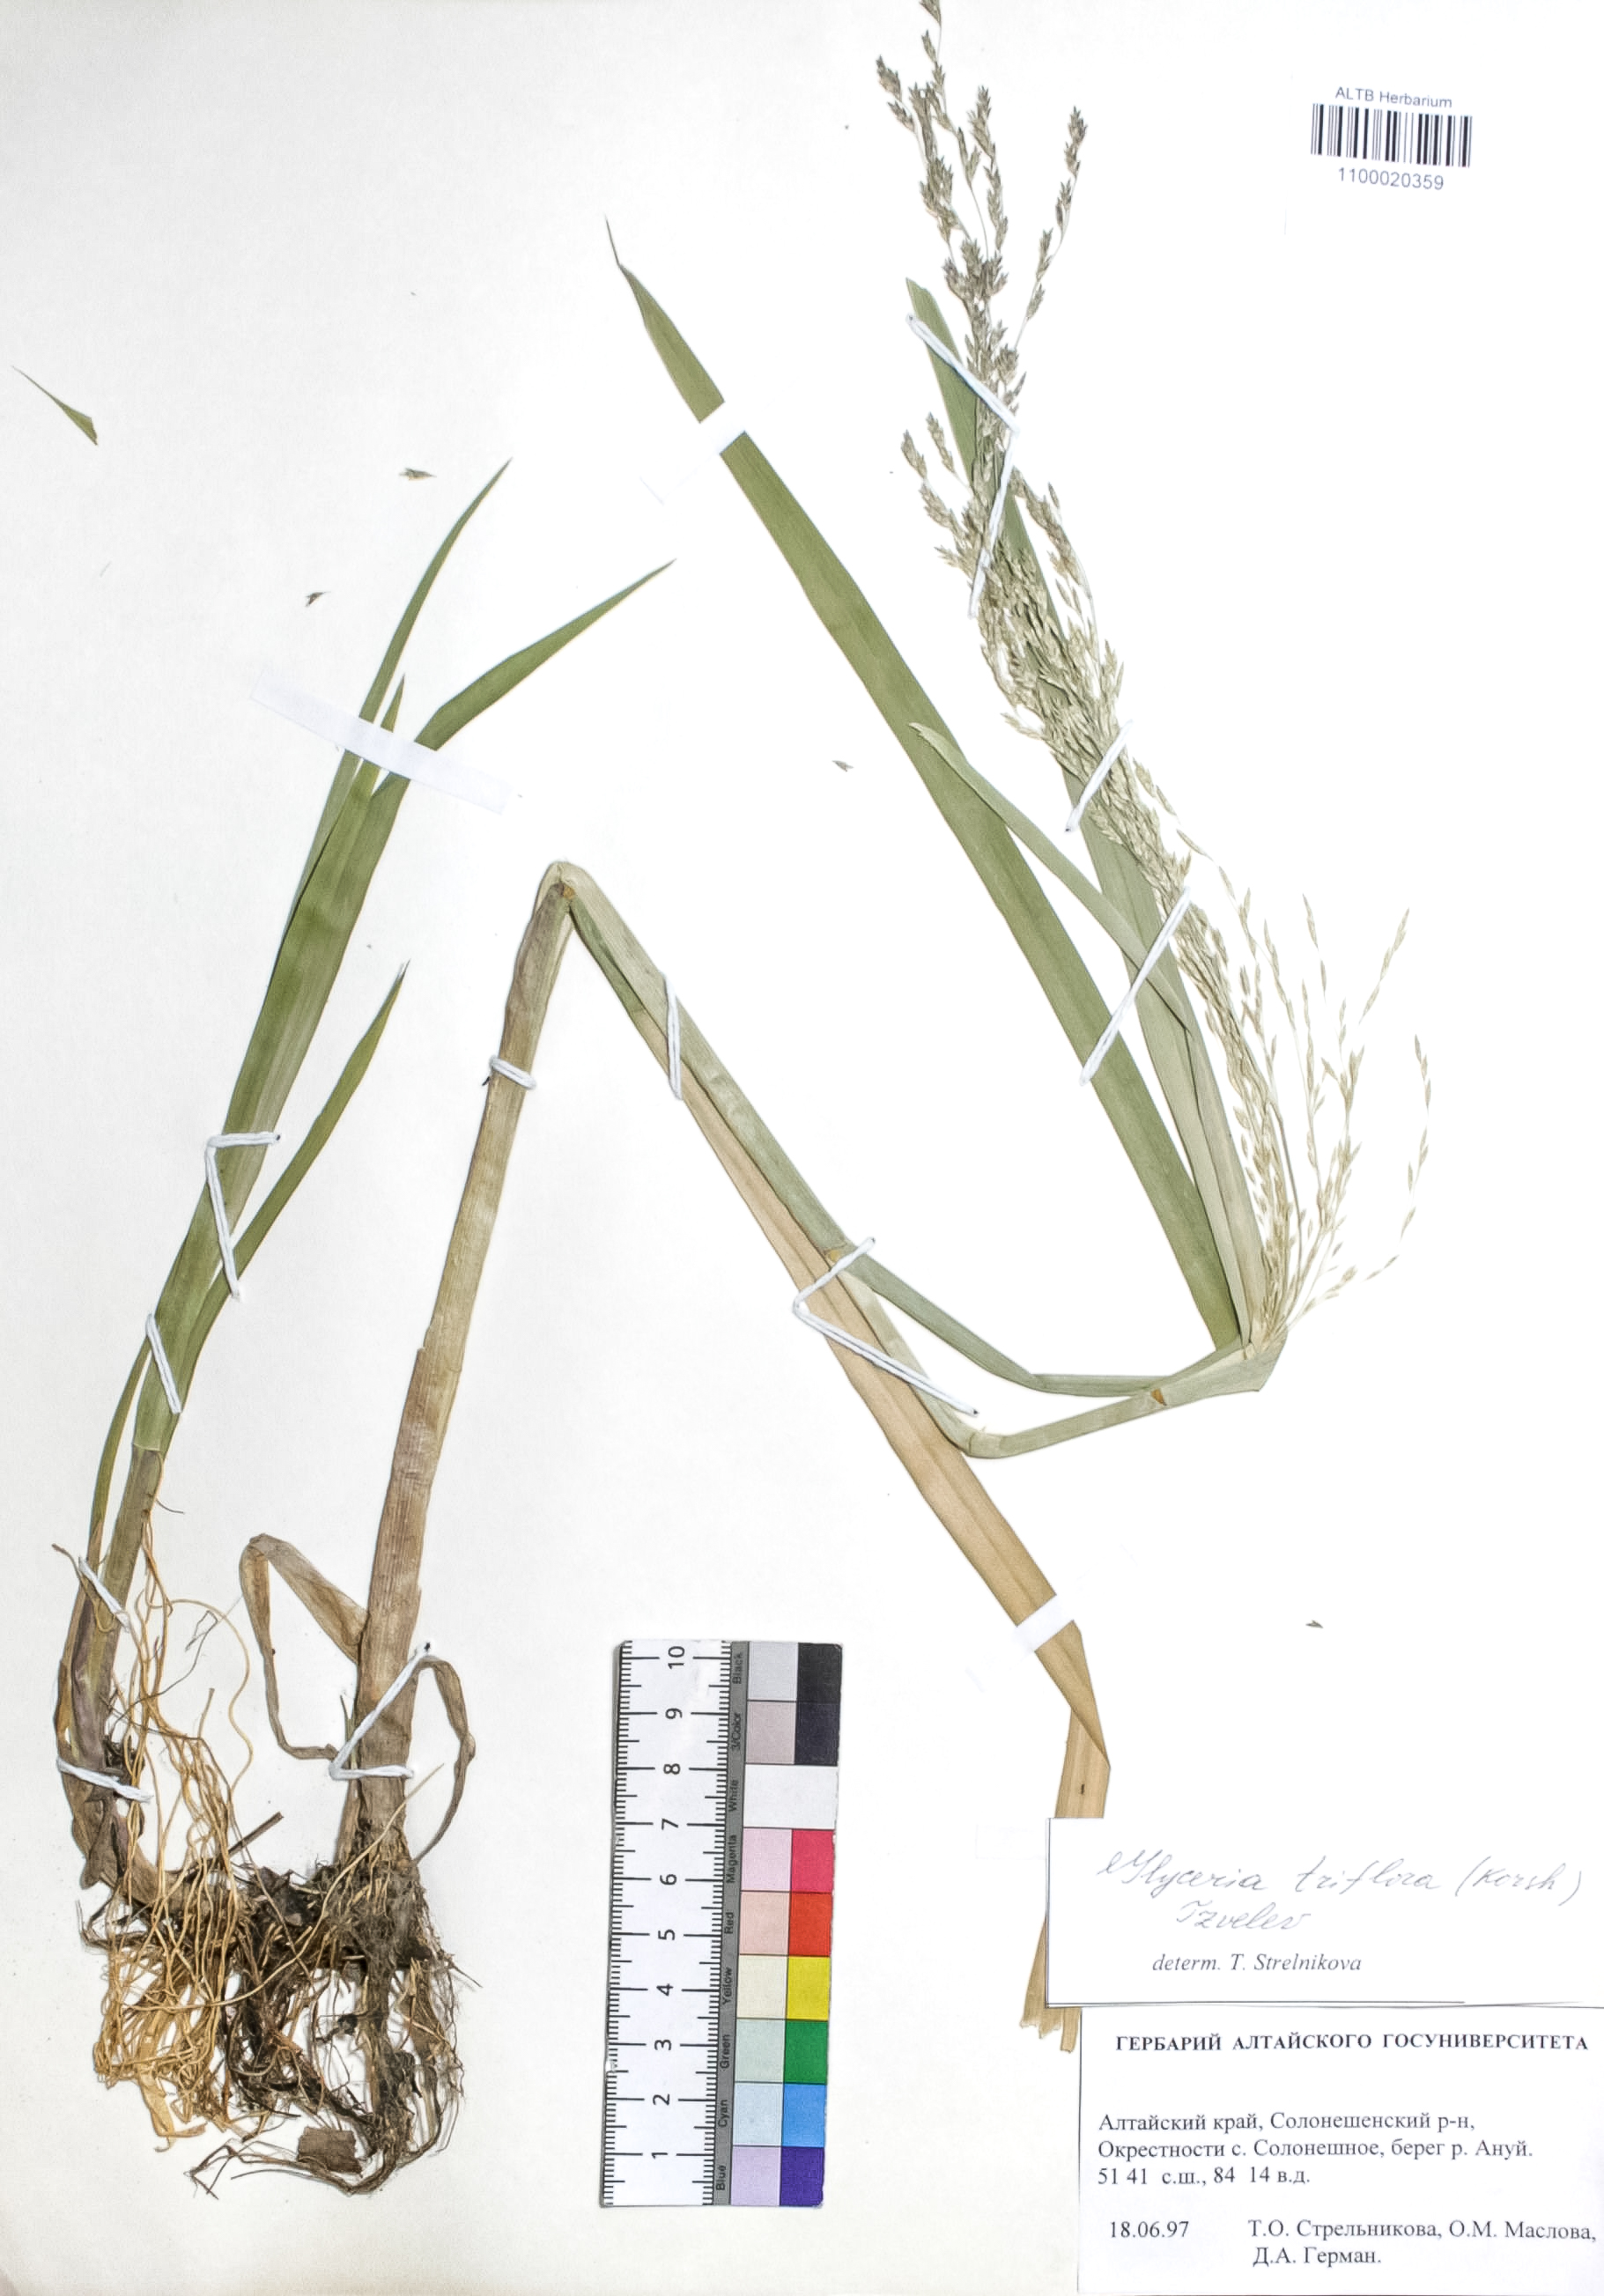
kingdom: Plantae
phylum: Tracheophyta
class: Liliopsida
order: Poales
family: Poaceae
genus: Glyceria
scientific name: Glyceria lithuanica
